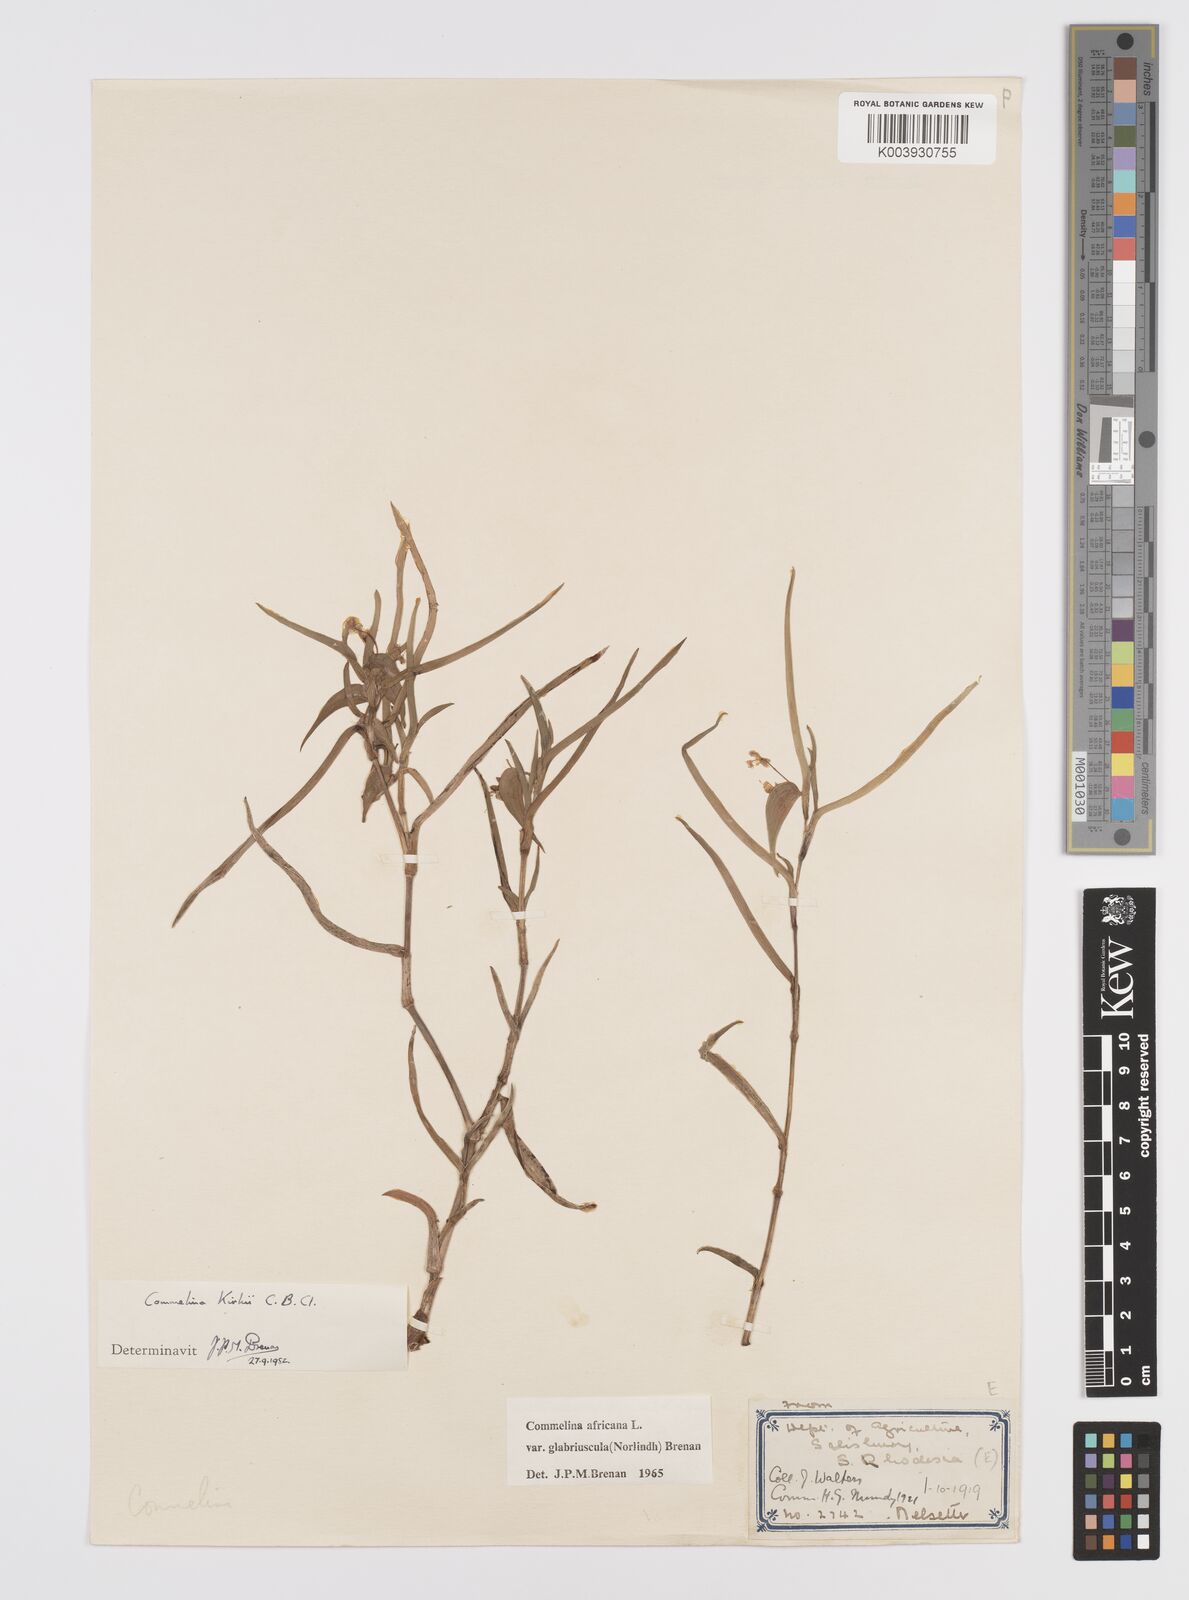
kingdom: Plantae
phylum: Tracheophyta
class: Liliopsida
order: Commelinales
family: Commelinaceae
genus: Commelina
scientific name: Commelina africana
